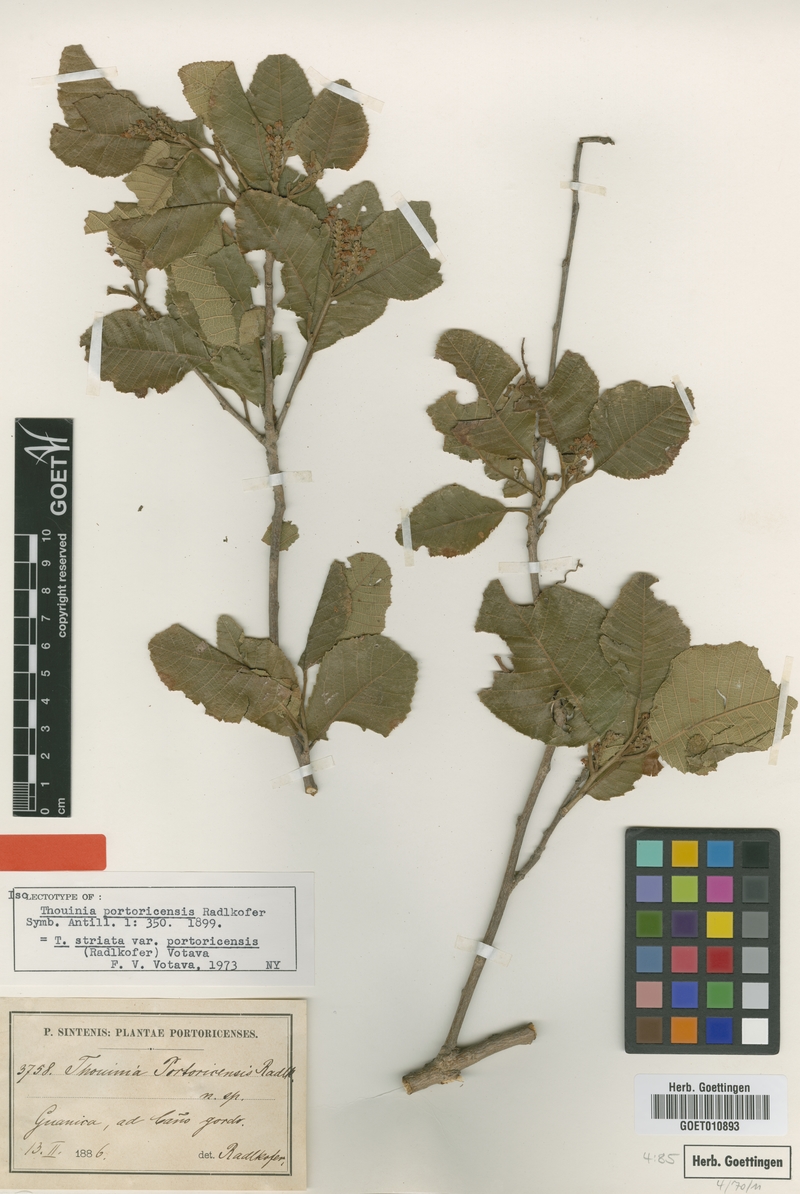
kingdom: Plantae
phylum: Tracheophyta
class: Magnoliopsida
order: Sapindales
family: Sapindaceae
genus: Thouinia
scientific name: Thouinia striata
